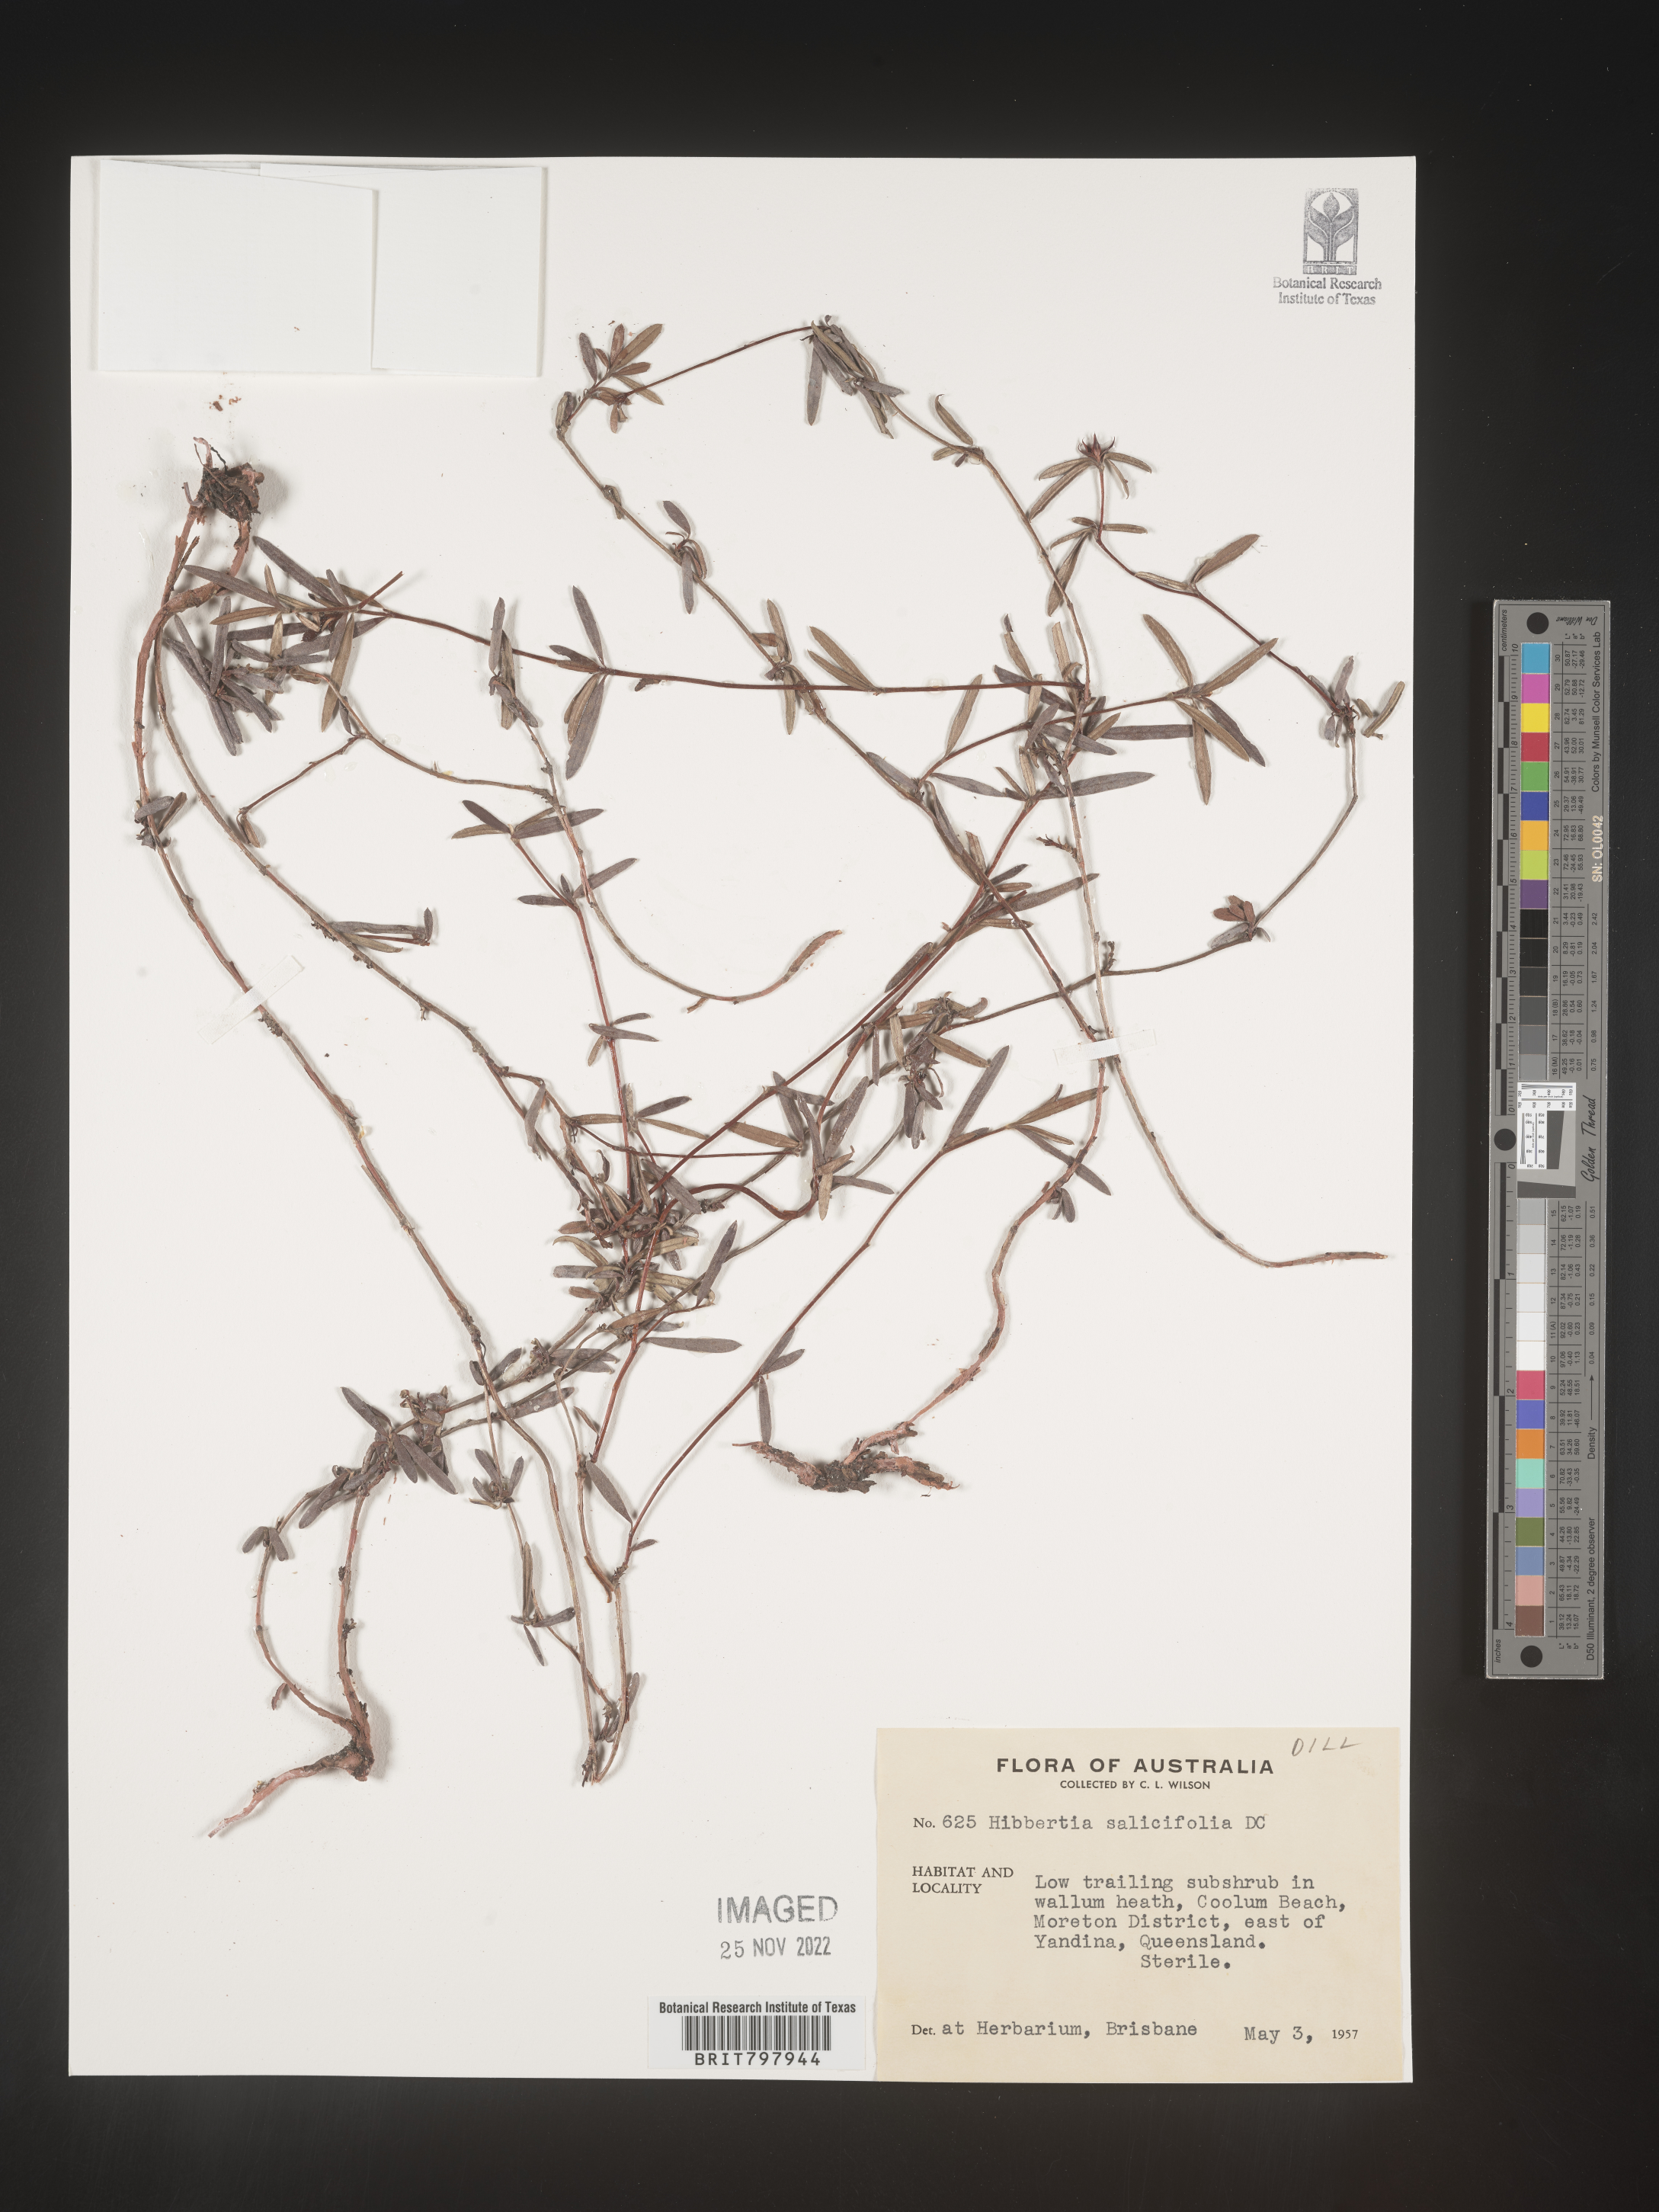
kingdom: Plantae
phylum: Tracheophyta
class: Magnoliopsida
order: Dilleniales
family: Dilleniaceae
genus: Hibbertia
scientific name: Hibbertia
